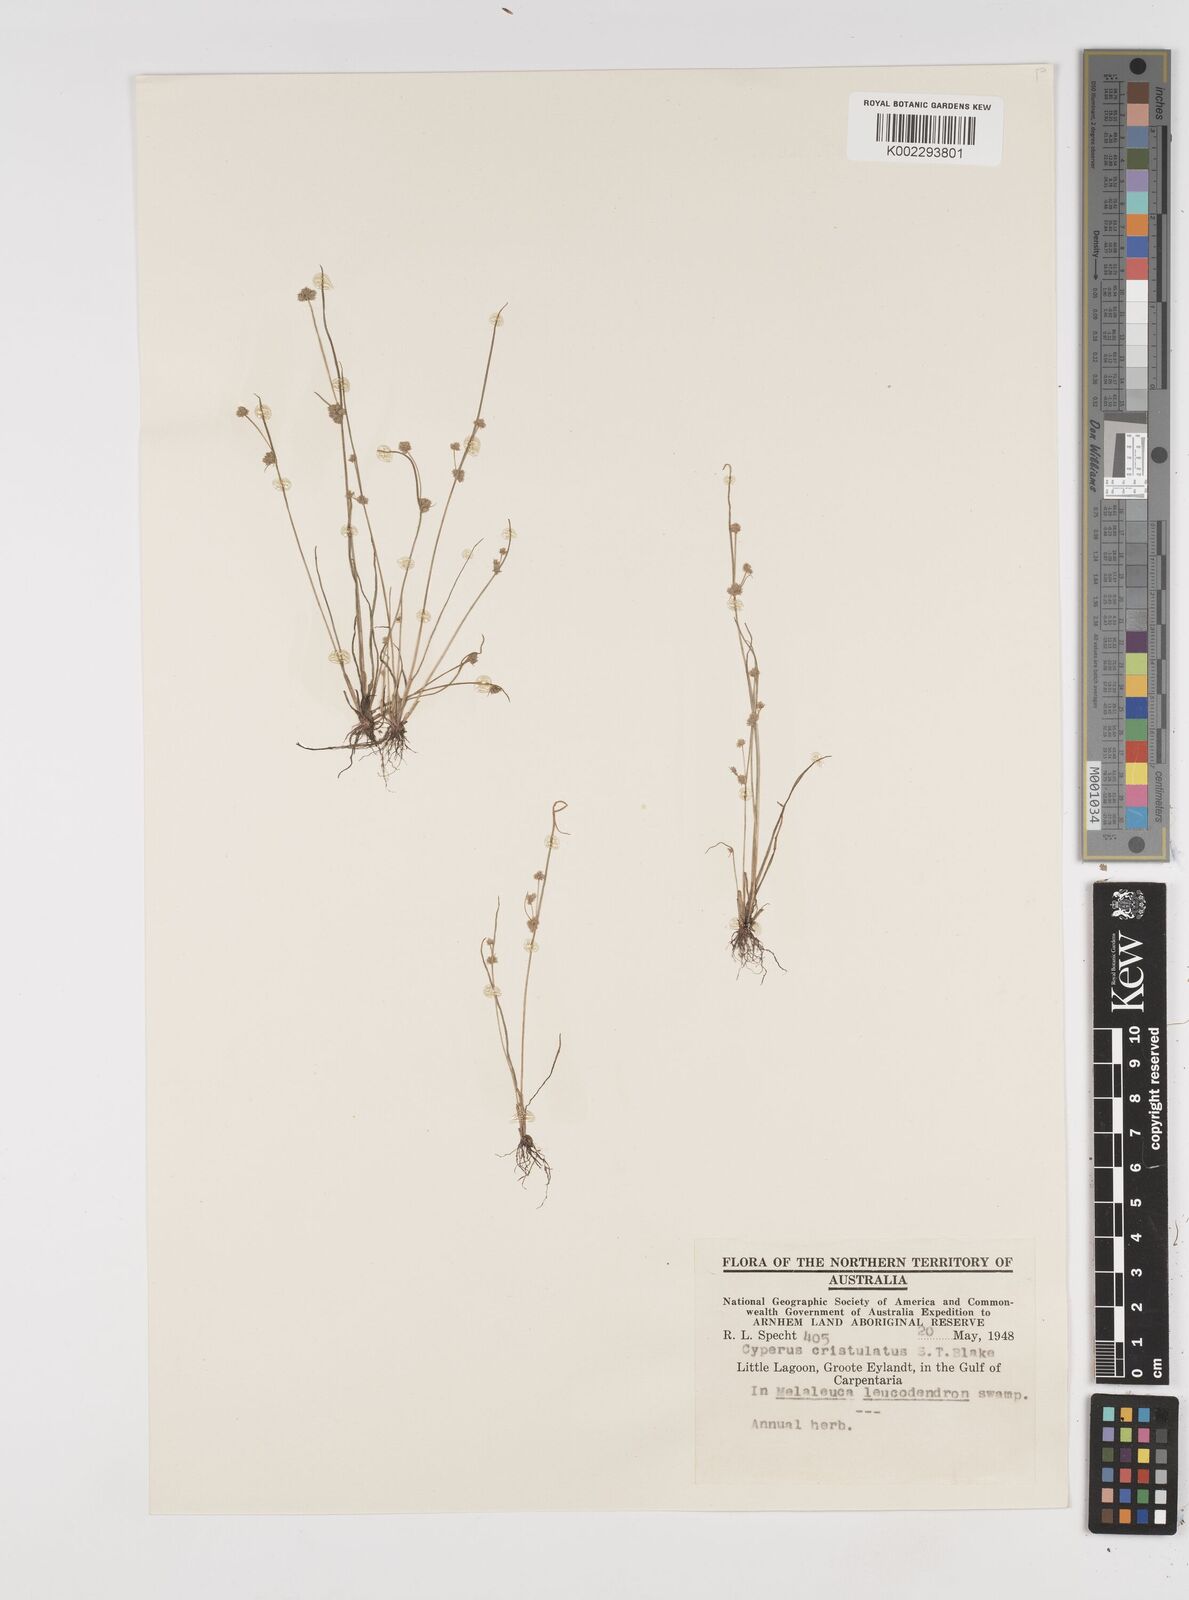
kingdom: Plantae
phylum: Tracheophyta
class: Liliopsida
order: Poales
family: Cyperaceae
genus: Cyperus
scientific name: Cyperus cristulatus
